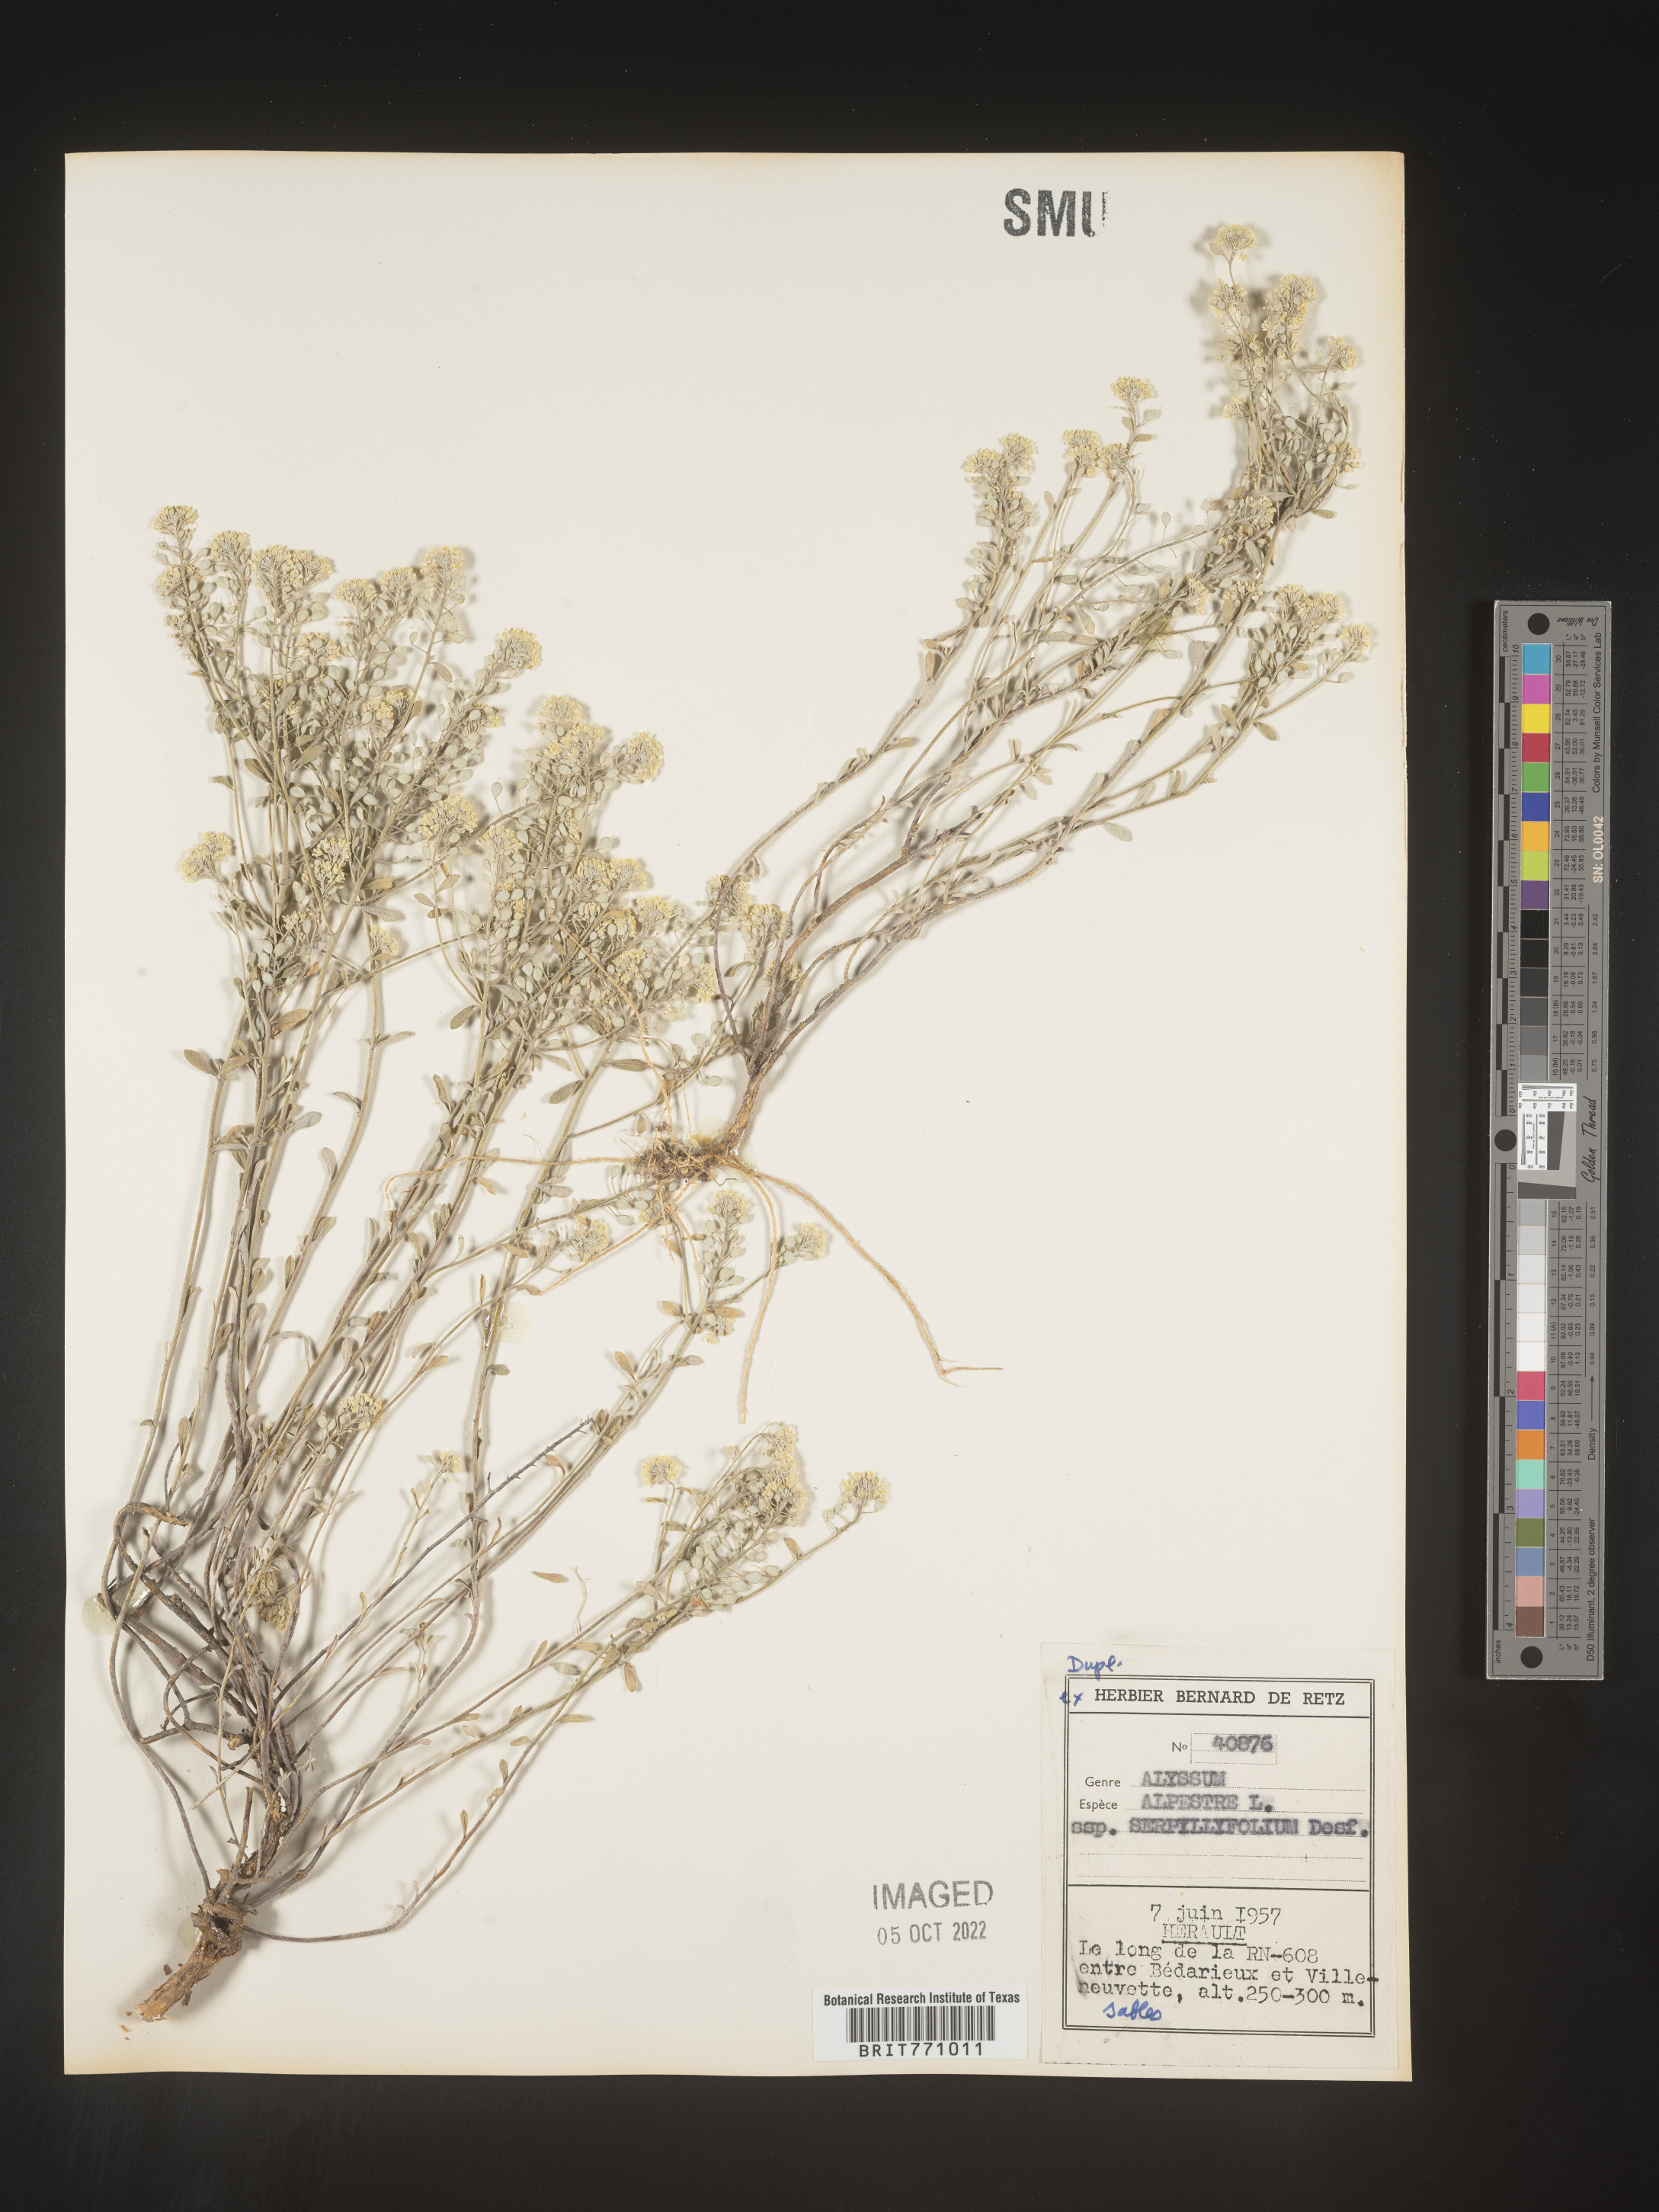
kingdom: Plantae
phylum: Tracheophyta
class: Magnoliopsida
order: Brassicales
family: Brassicaceae
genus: Alyssum
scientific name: Alyssum
